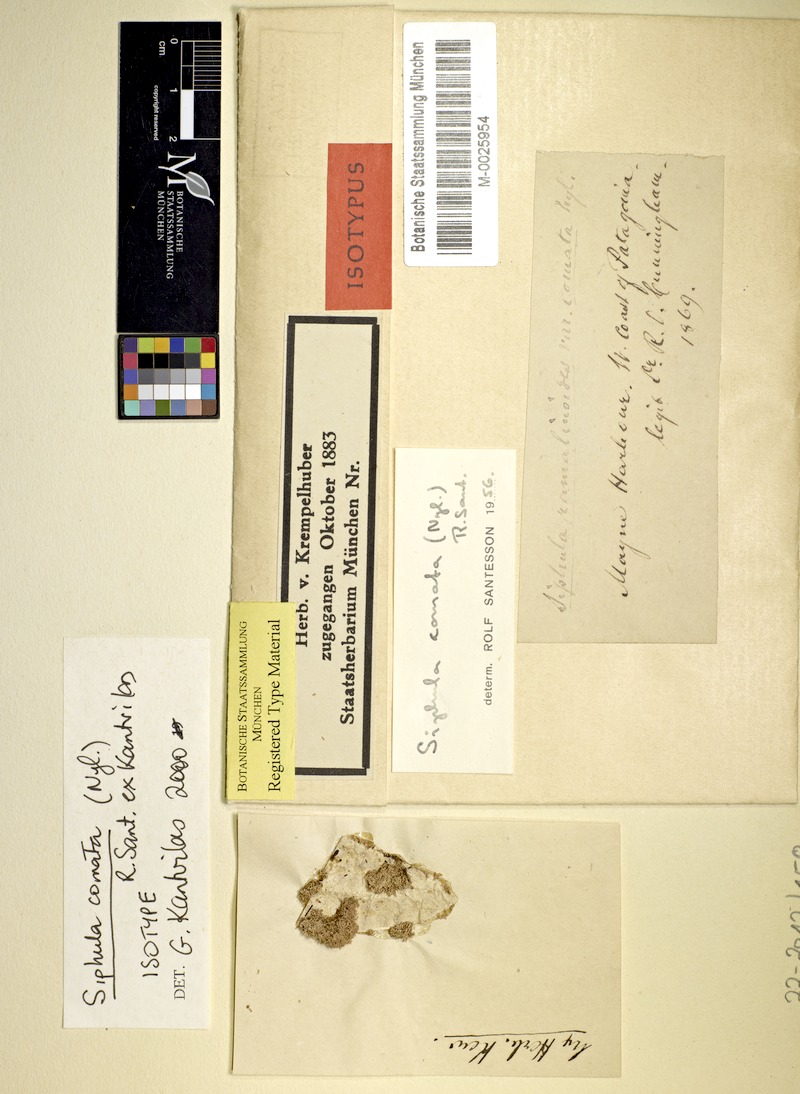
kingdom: Fungi
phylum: Ascomycota
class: Lecanoromycetes
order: Pertusariales
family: Coccotremataceae
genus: Parasiphula
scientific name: Parasiphula comata
